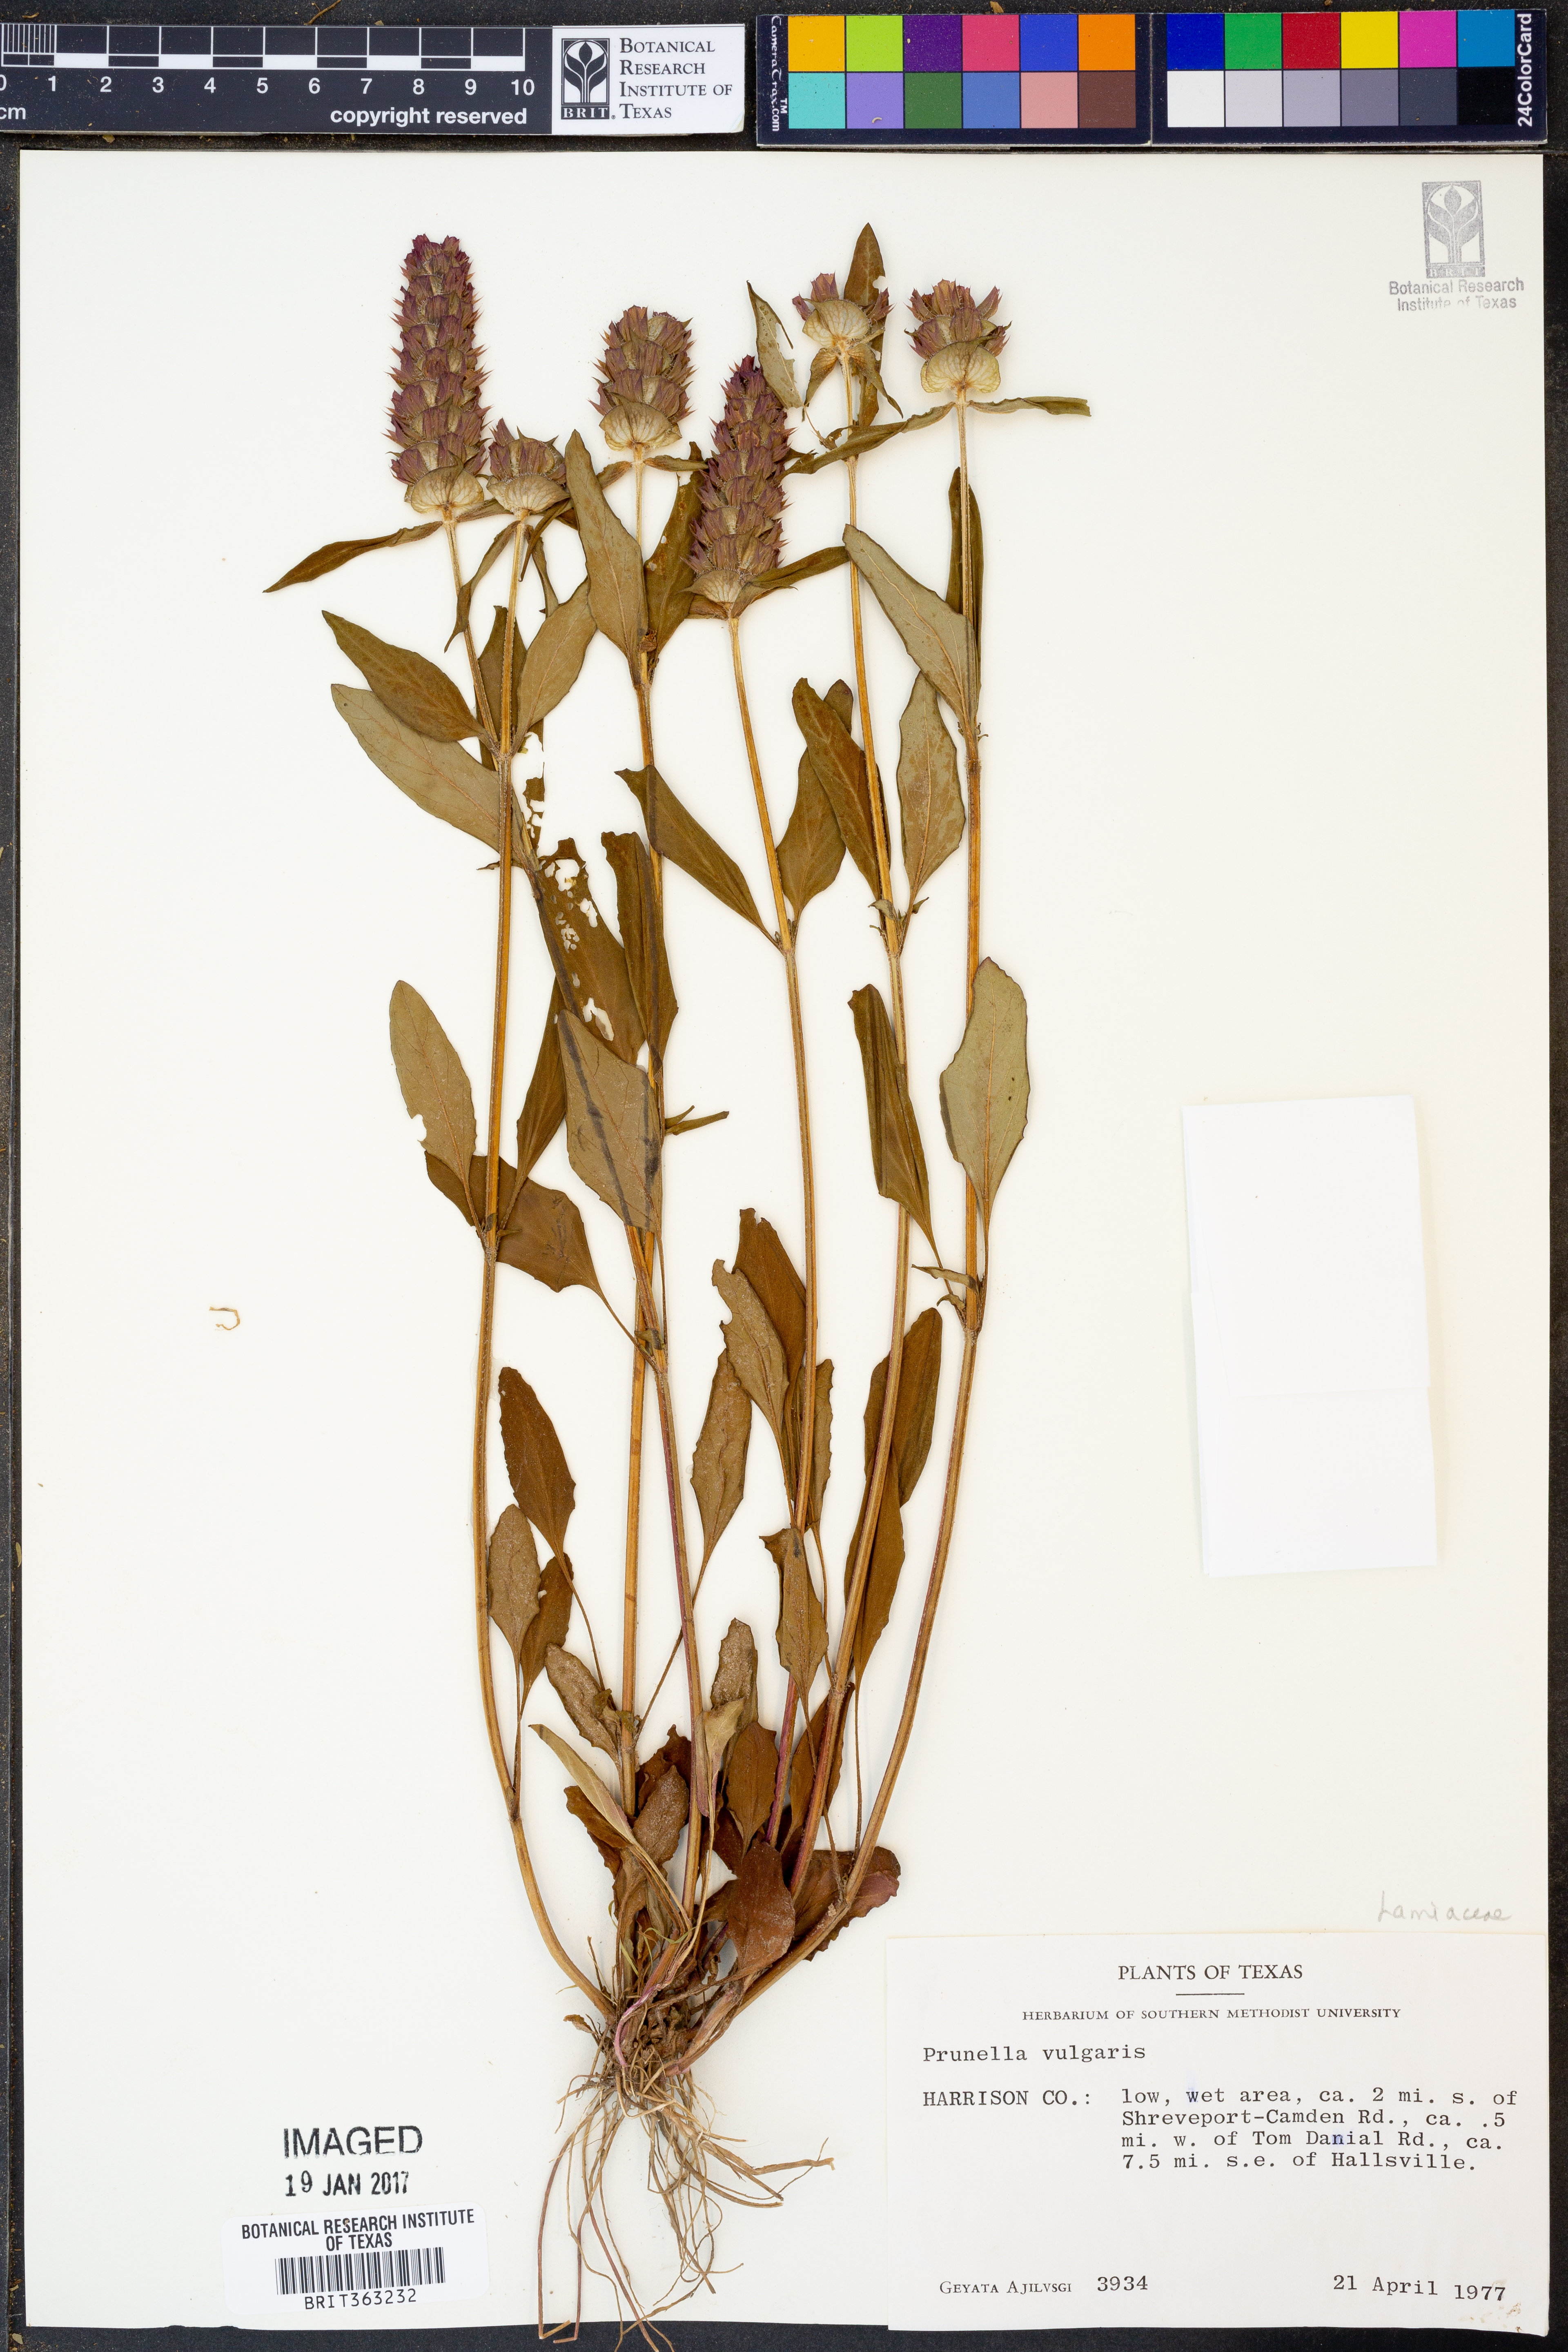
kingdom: Plantae
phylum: Tracheophyta
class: Magnoliopsida
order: Lamiales
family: Lamiaceae
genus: Prunella
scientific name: Prunella vulgaris
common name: Heal-all
